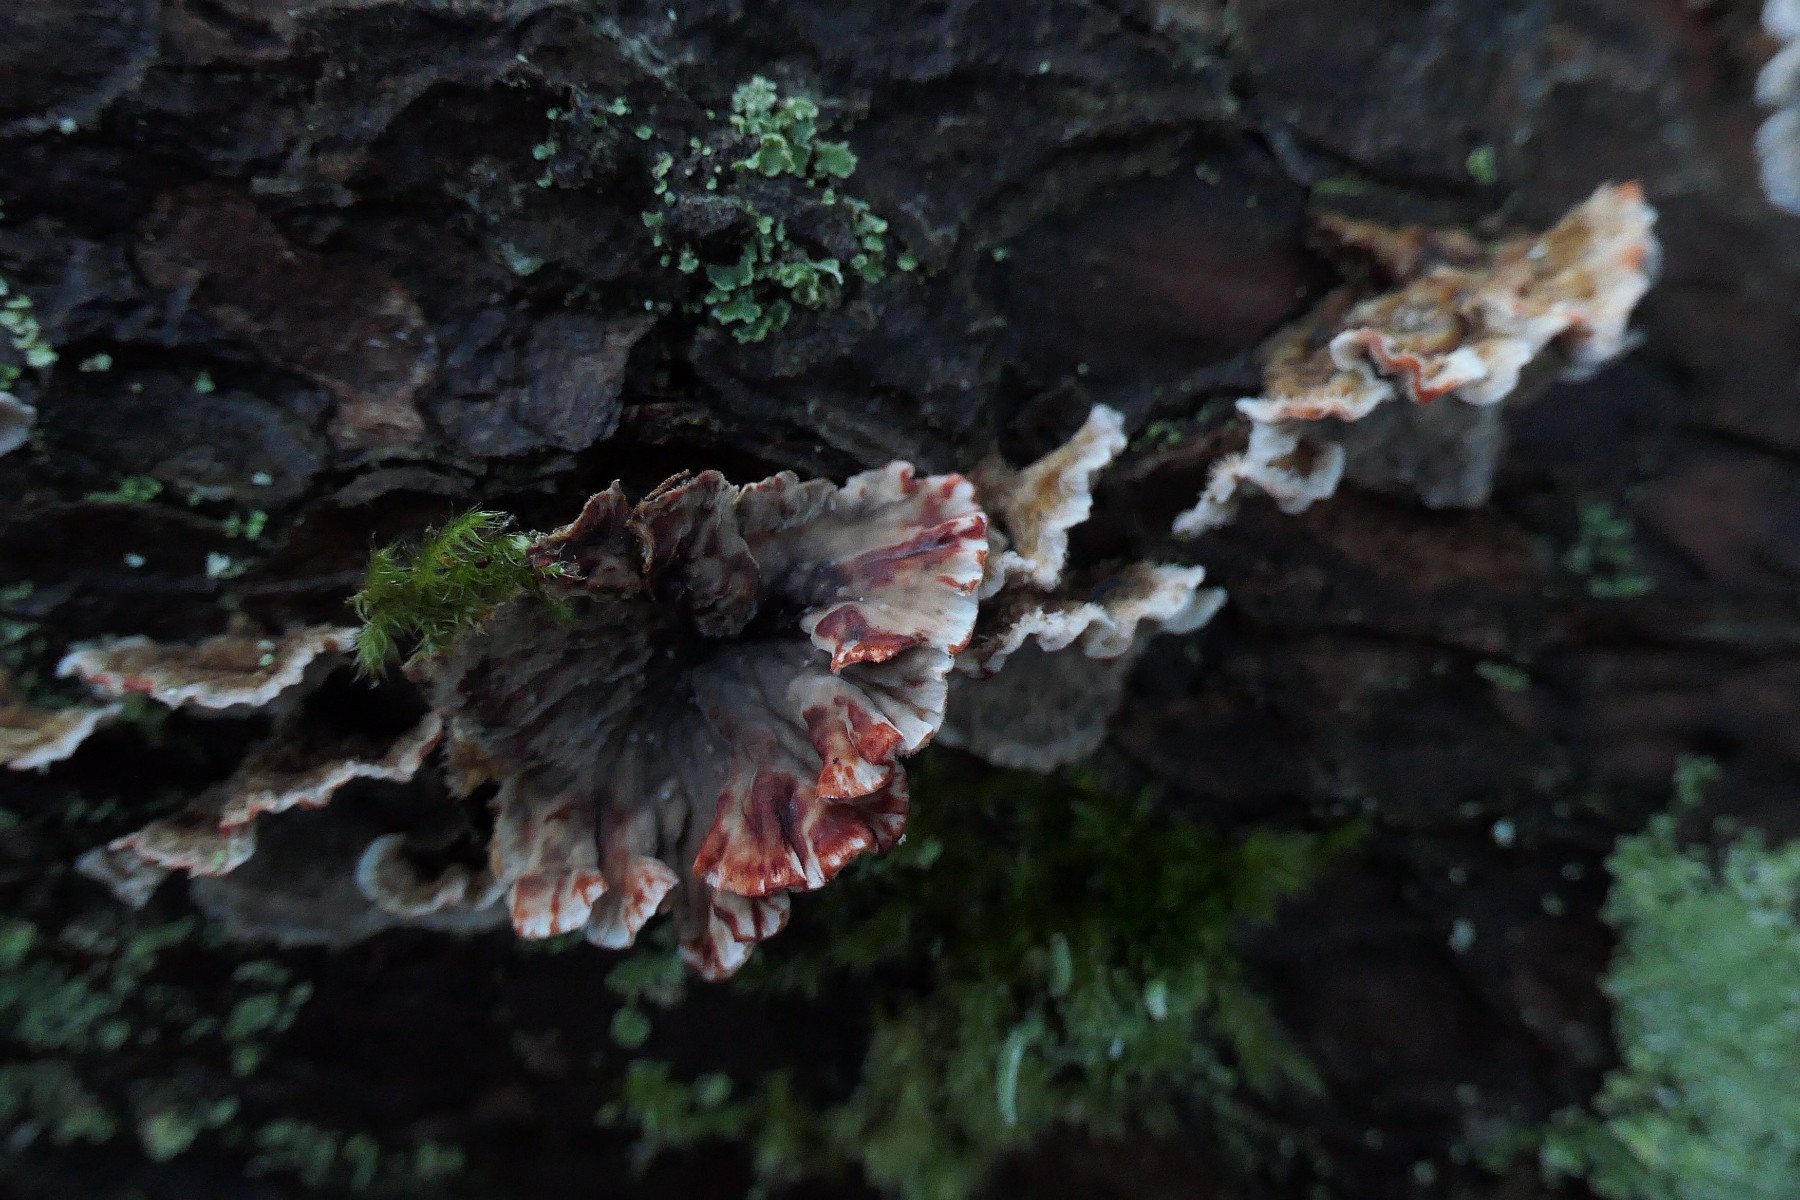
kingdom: Fungi
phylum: Basidiomycota
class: Agaricomycetes
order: Russulales
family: Stereaceae
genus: Stereum
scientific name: Stereum sanguinolentum
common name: blødende lædersvamp
